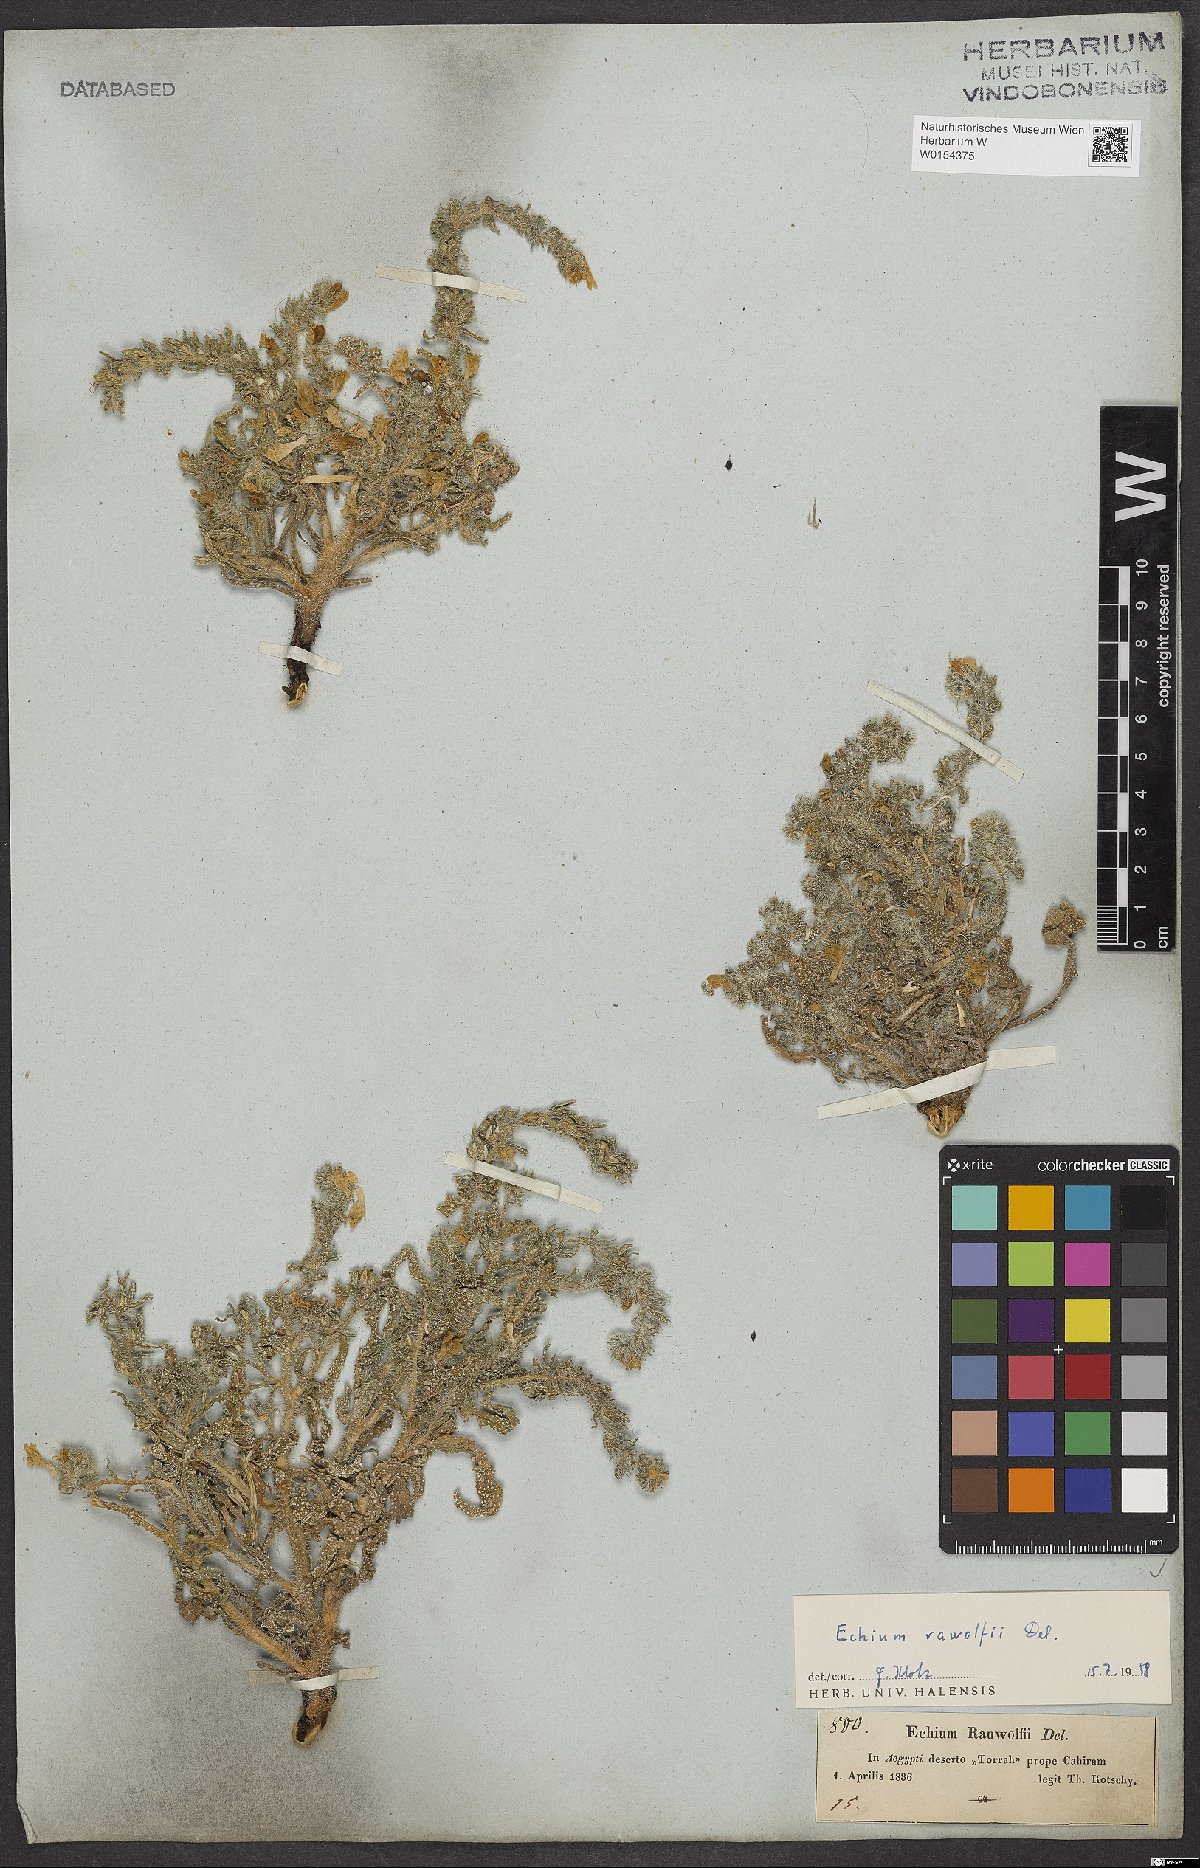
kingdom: Plantae
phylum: Tracheophyta
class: Magnoliopsida
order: Boraginales
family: Boraginaceae
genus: Echium
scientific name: Echium rauwolfii
